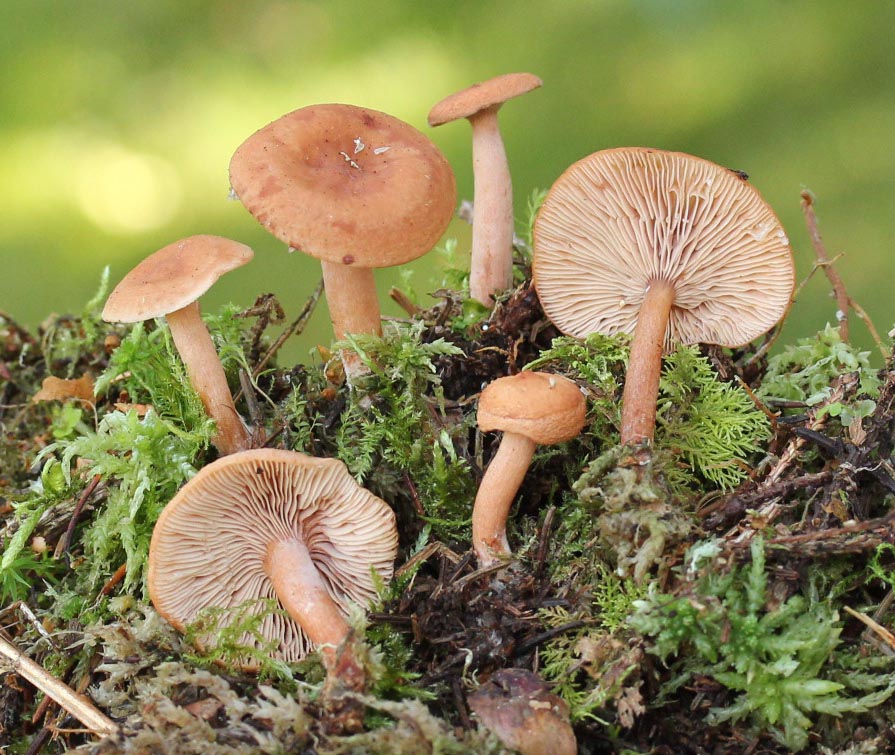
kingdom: Fungi
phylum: Basidiomycota
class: Agaricomycetes
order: Russulales
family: Russulaceae
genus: Lactarius
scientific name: Lactarius tabidus
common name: rynket mælkehat
